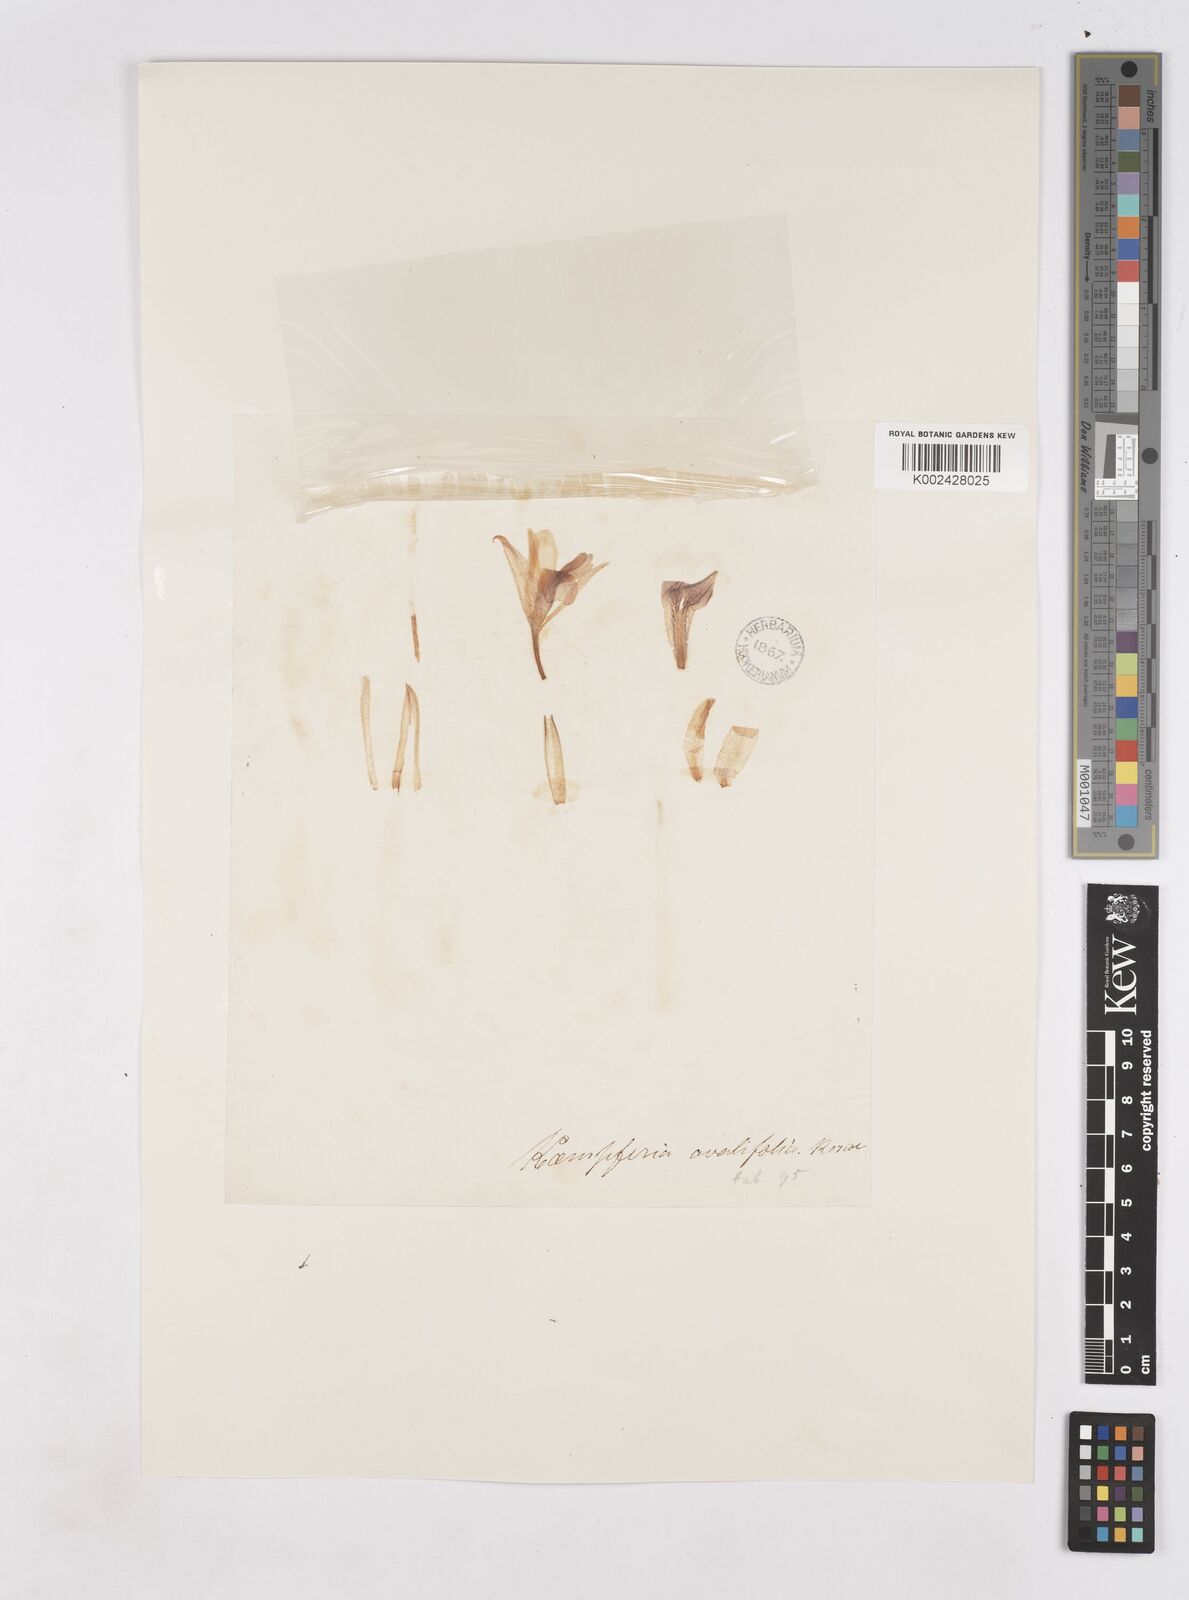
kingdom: Plantae
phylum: Tracheophyta
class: Liliopsida
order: Zingiberales
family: Zingiberaceae
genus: Kaempferia
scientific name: Kaempferia ovalifolia
